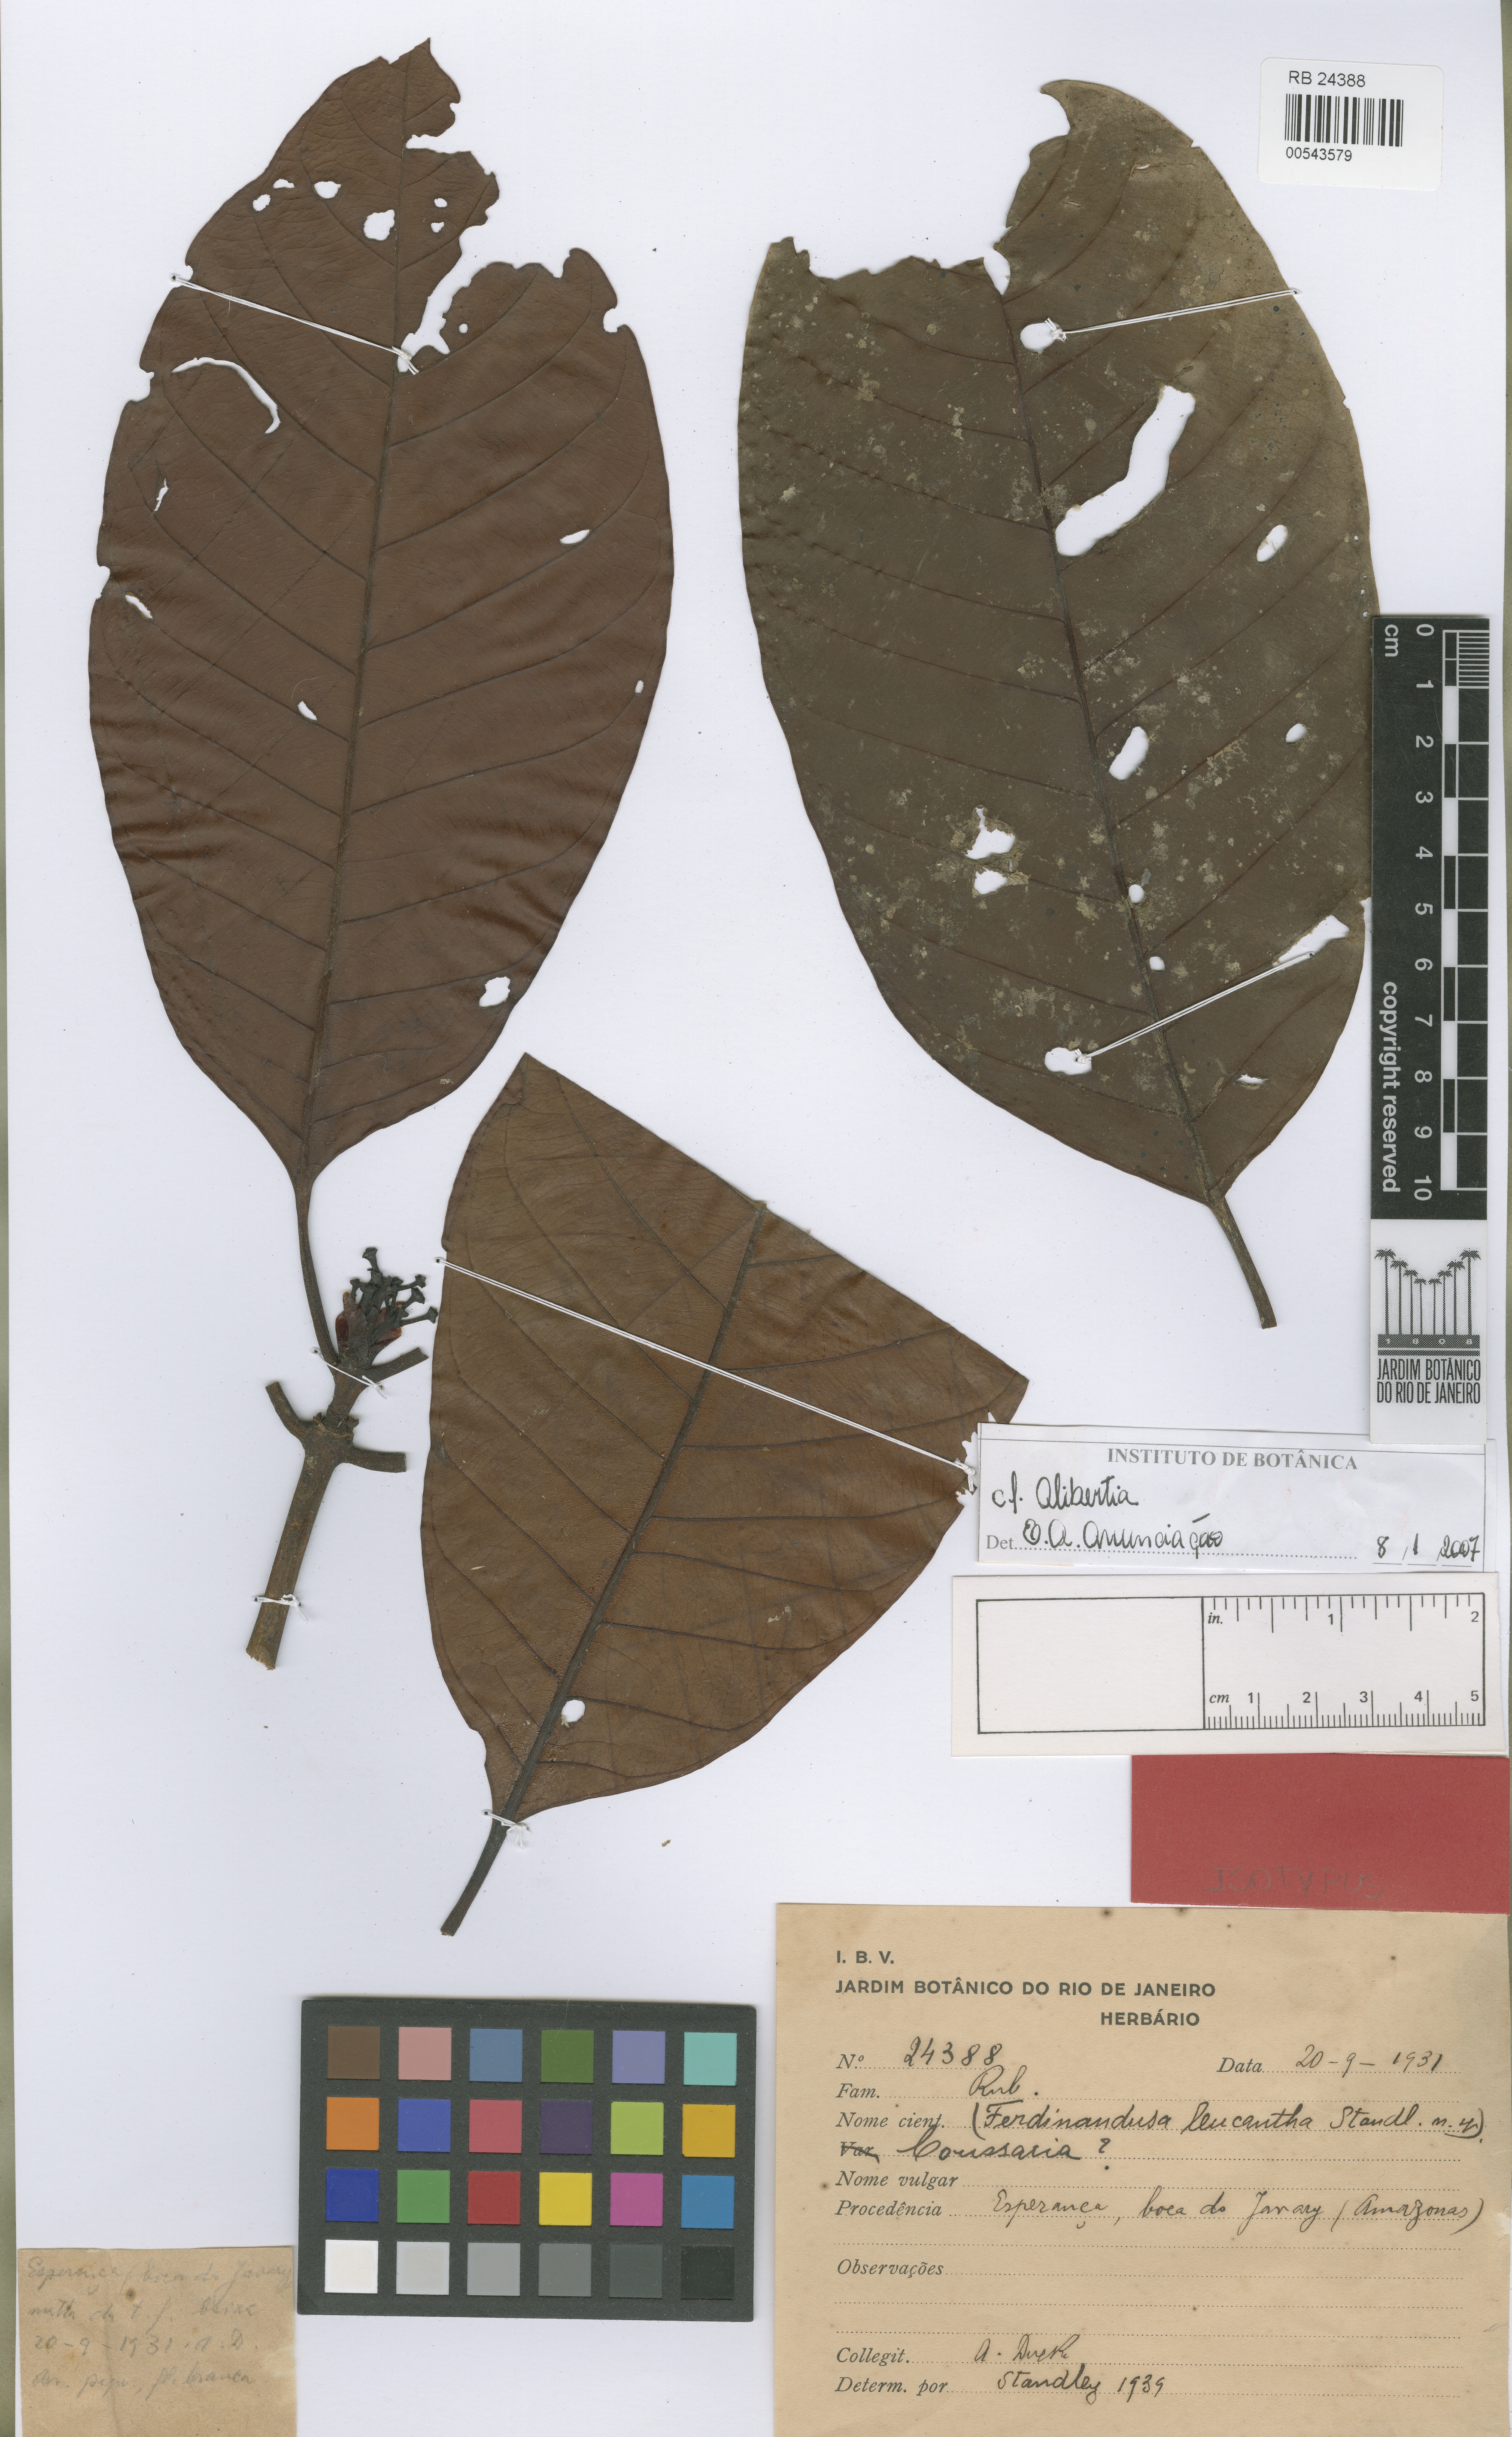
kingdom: Plantae
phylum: Tracheophyta
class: Magnoliopsida
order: Gentianales
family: Rubiaceae
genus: Ferdinandusa
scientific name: Ferdinandusa leucantha
